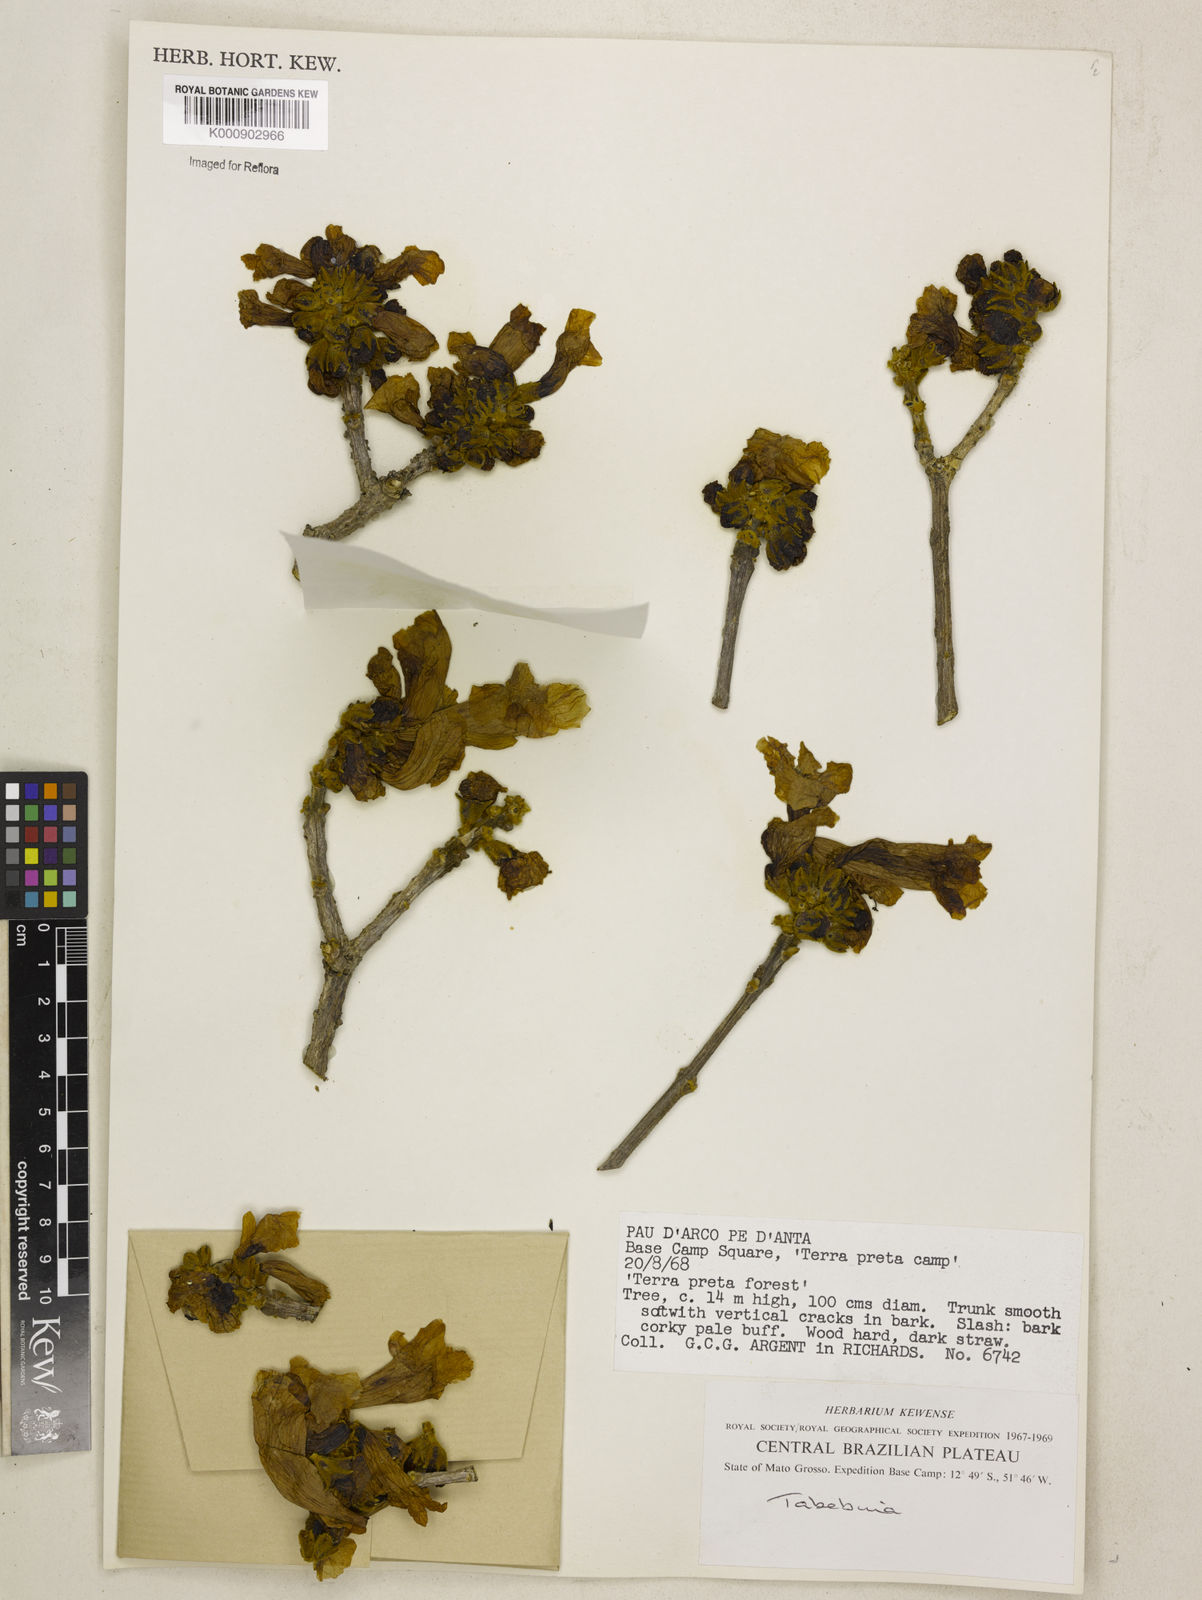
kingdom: Plantae
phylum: Tracheophyta
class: Magnoliopsida
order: Lamiales
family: Bignoniaceae
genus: Tabebuia
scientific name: Tabebuia
